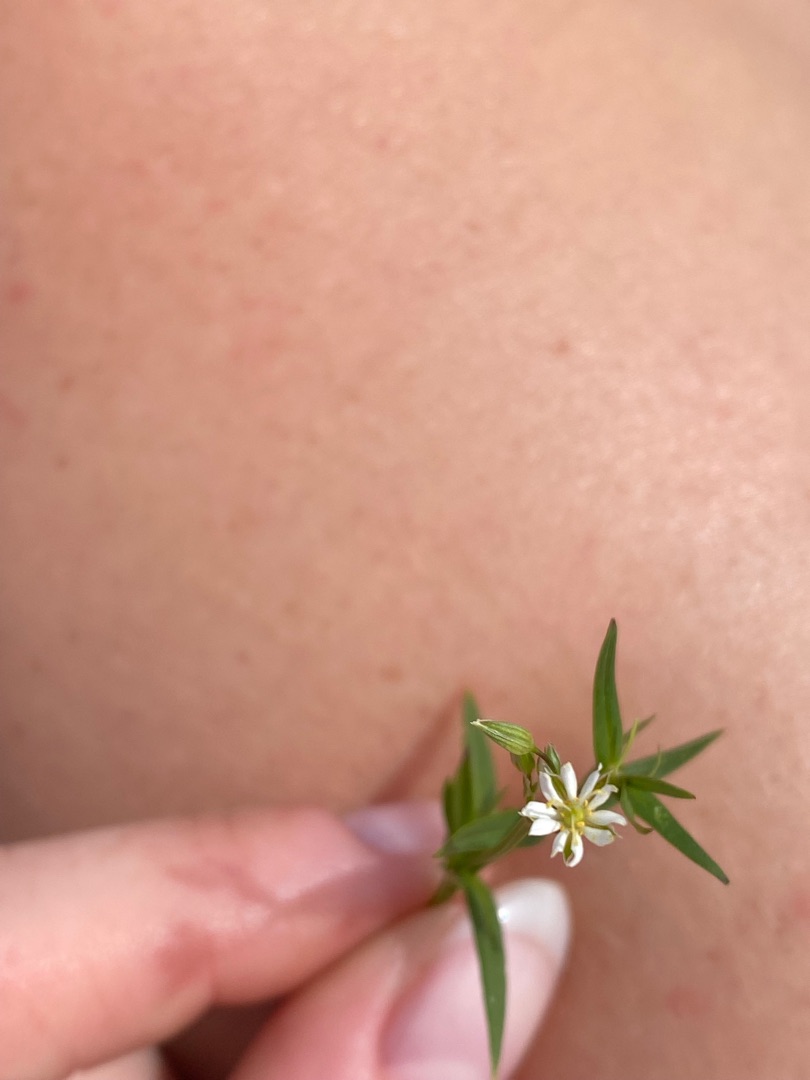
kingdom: Plantae
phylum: Tracheophyta
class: Magnoliopsida
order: Caryophyllales
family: Caryophyllaceae
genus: Stellaria
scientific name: Stellaria graminea
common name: Græsbladet fladstjerne
